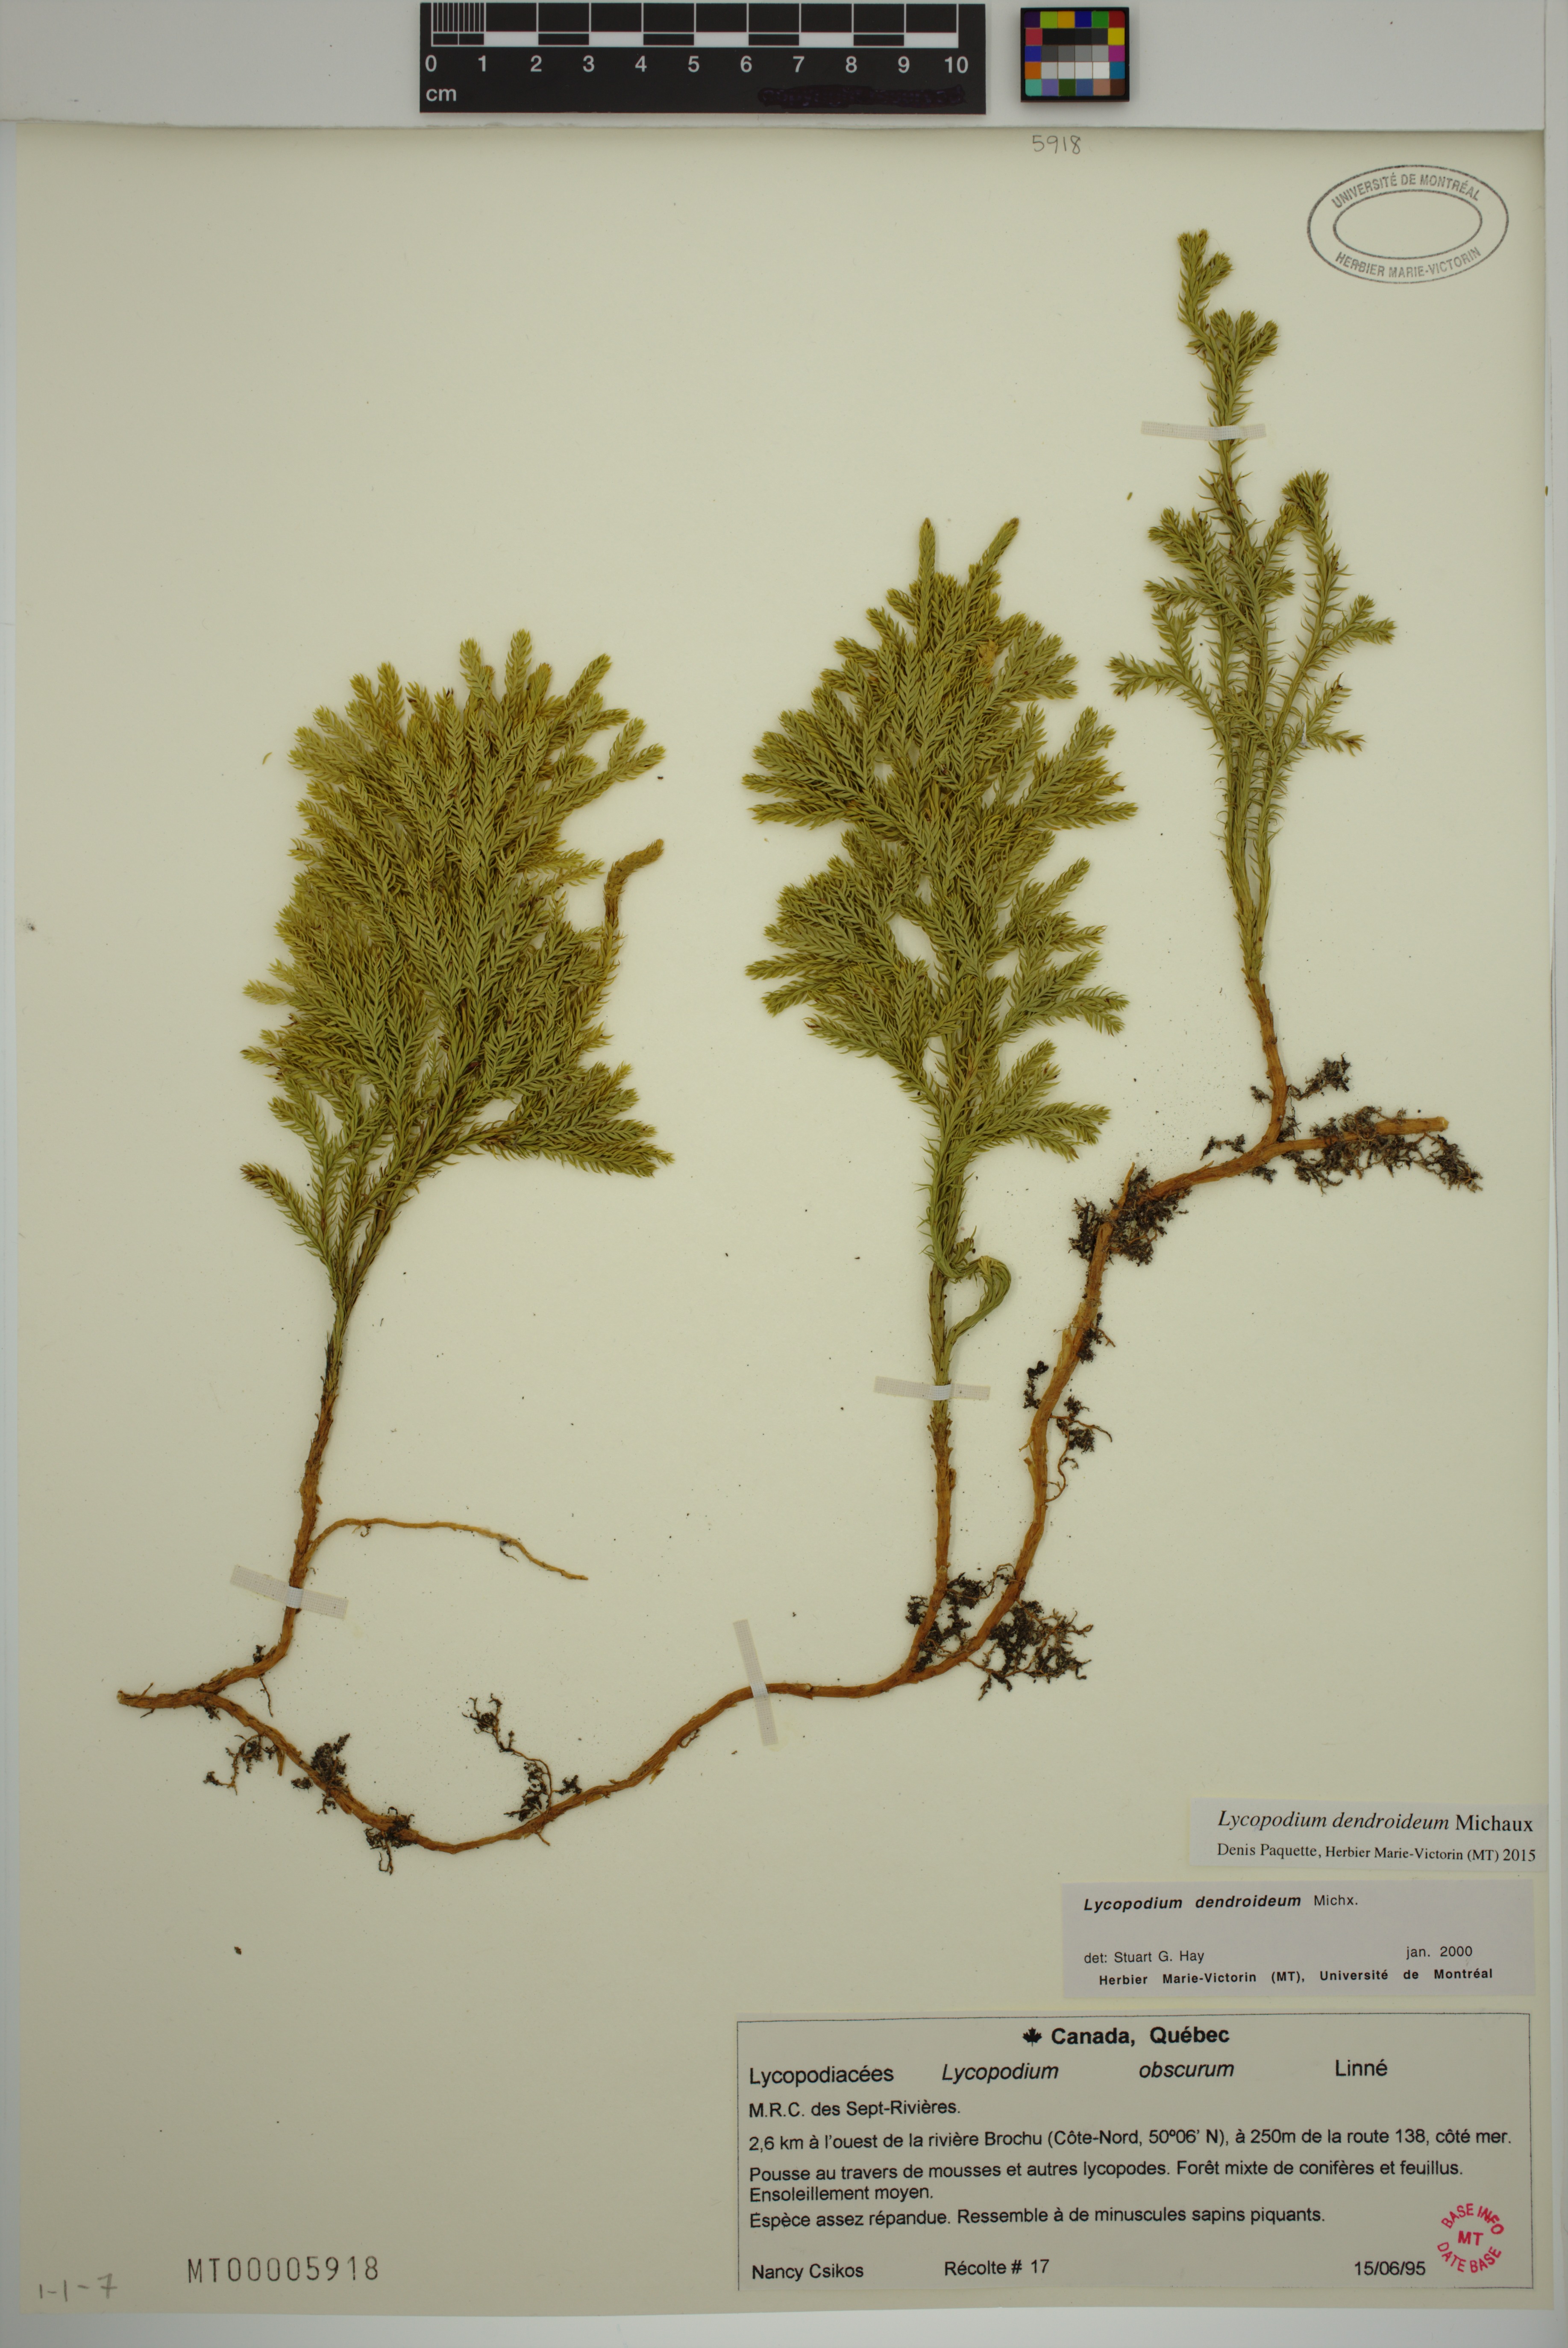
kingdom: Plantae
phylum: Tracheophyta
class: Lycopodiopsida
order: Lycopodiales
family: Lycopodiaceae
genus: Dendrolycopodium
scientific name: Dendrolycopodium dendroideum
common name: Northern tree-clubmoss
